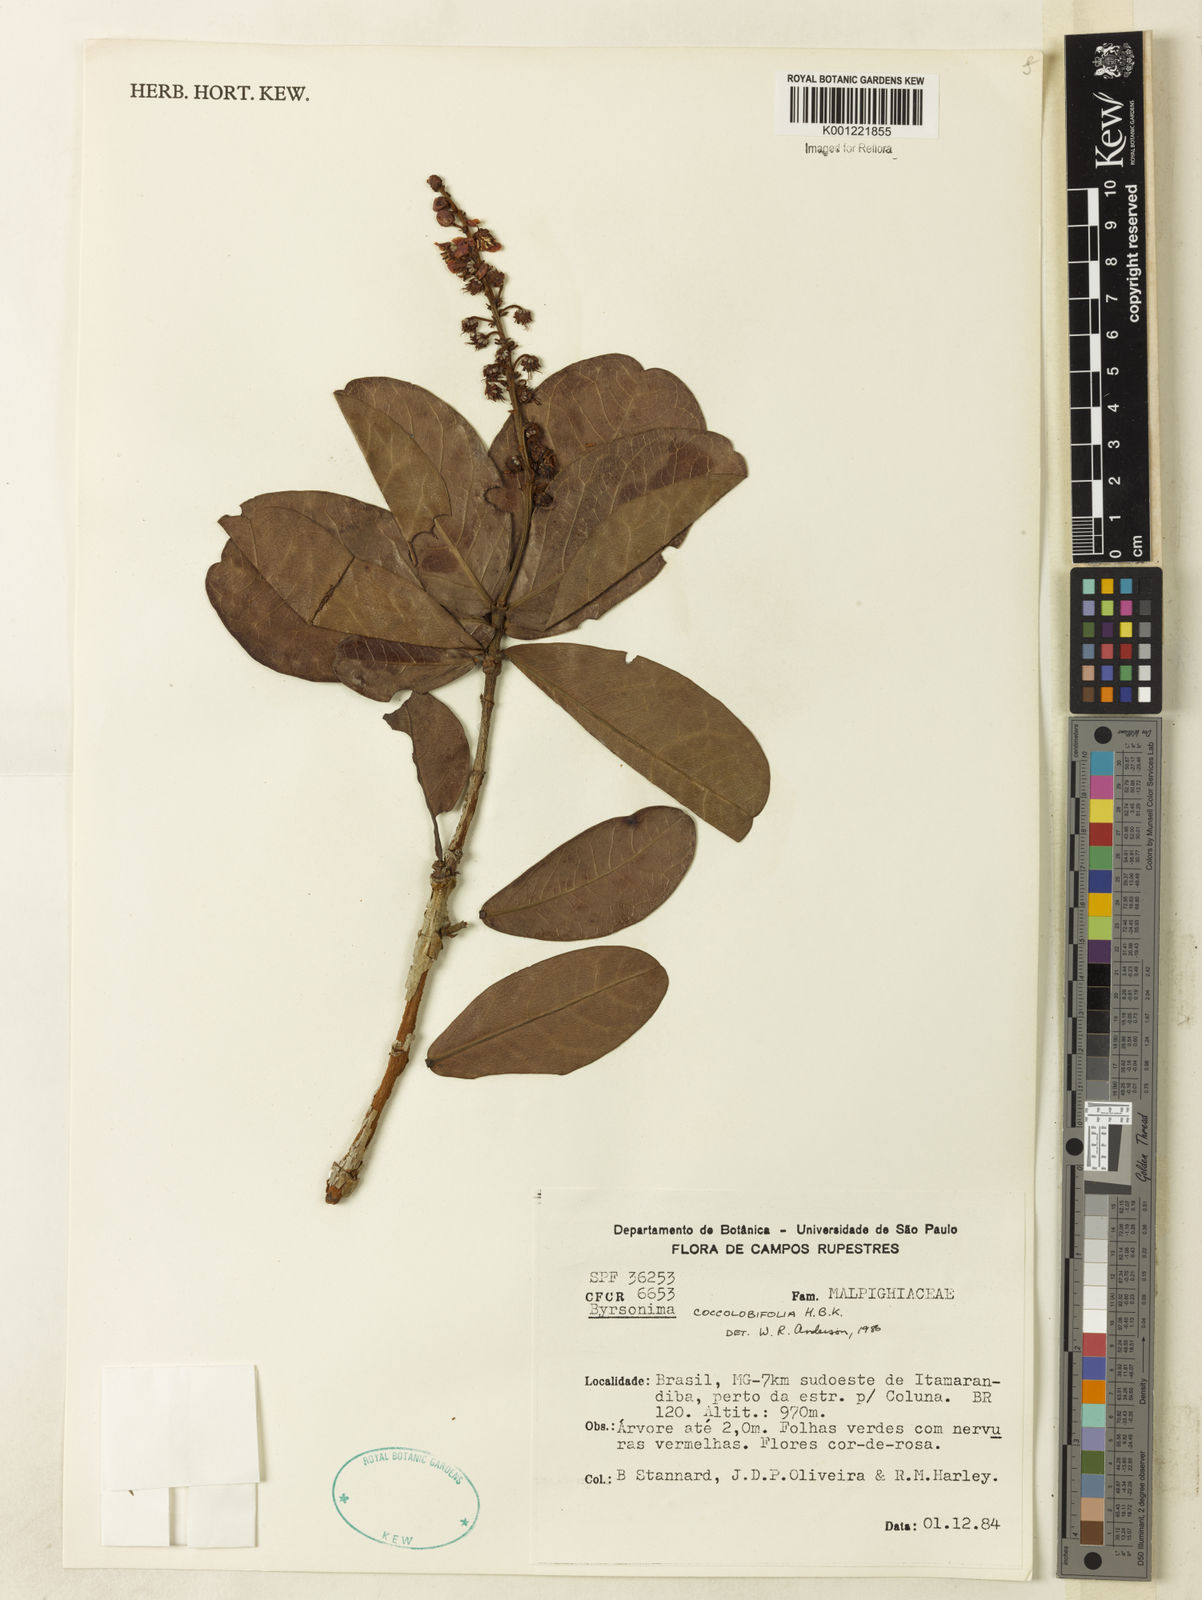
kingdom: Plantae
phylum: Tracheophyta
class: Magnoliopsida
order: Malpighiales
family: Malpighiaceae
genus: Byrsonima
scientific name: Byrsonima coccolobifolia
